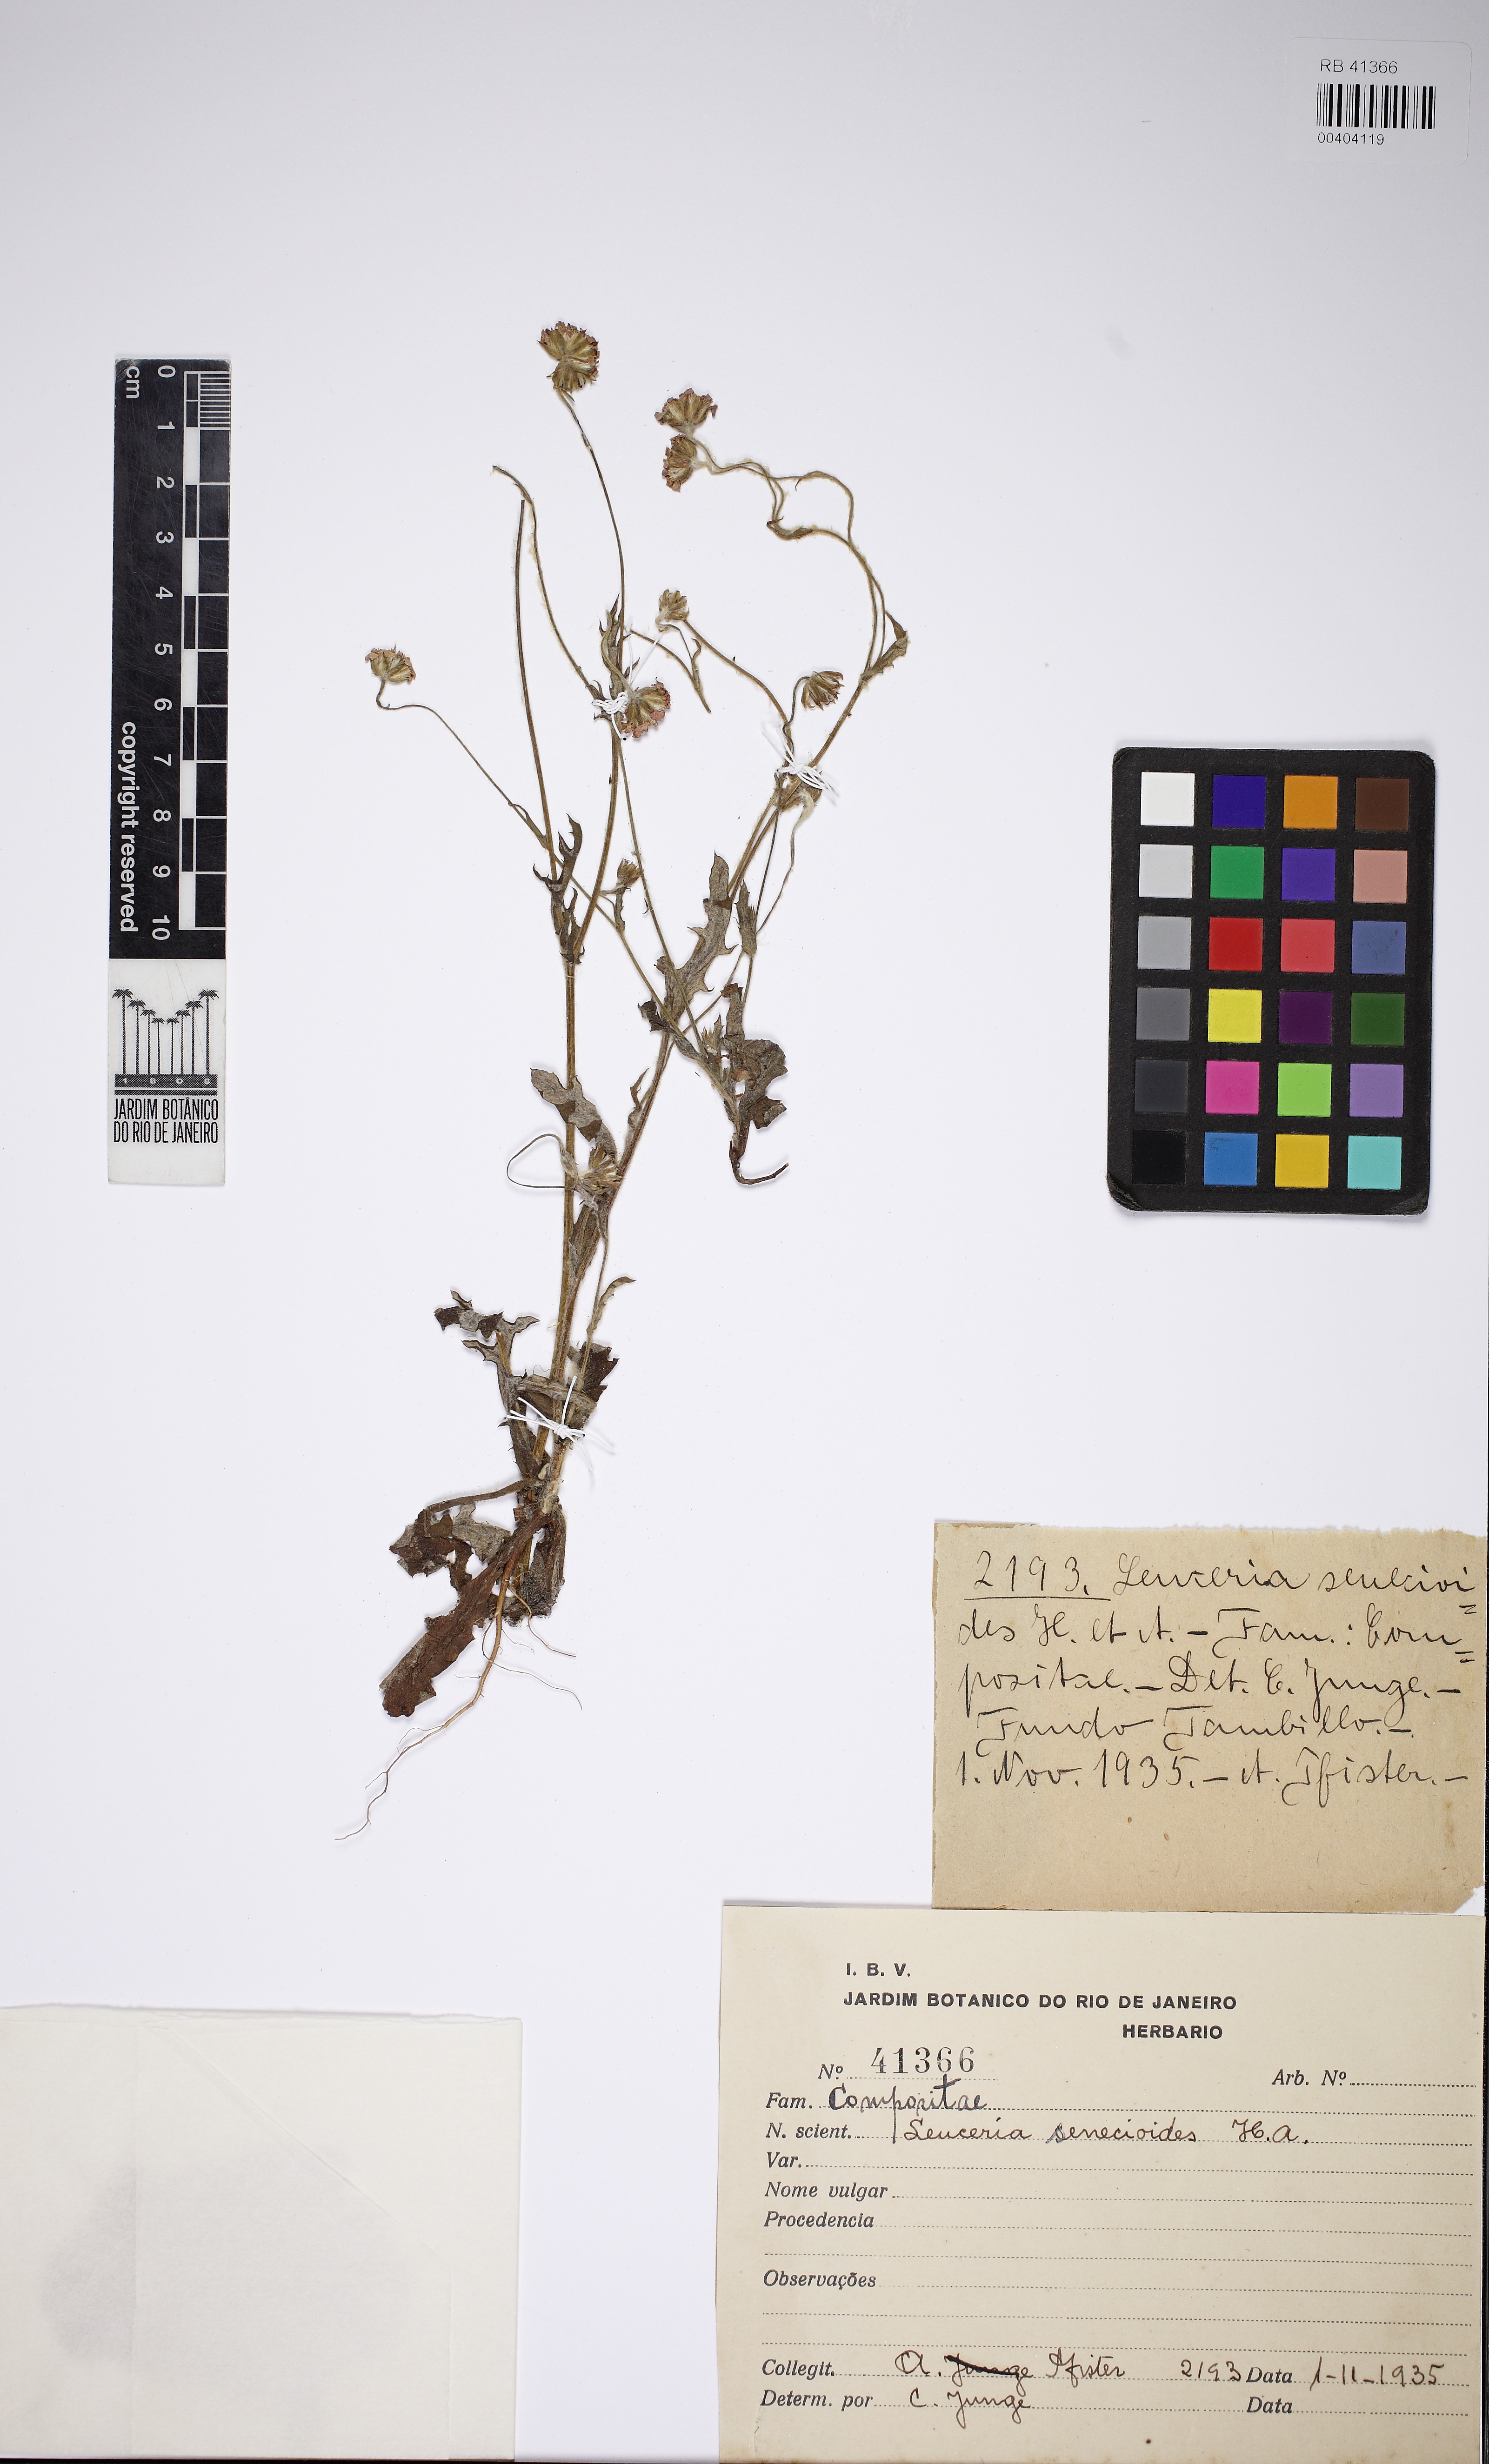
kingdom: Plantae
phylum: Tracheophyta
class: Magnoliopsida
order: Asterales
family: Asteraceae
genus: Leucheria
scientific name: Leucheria senecioides
